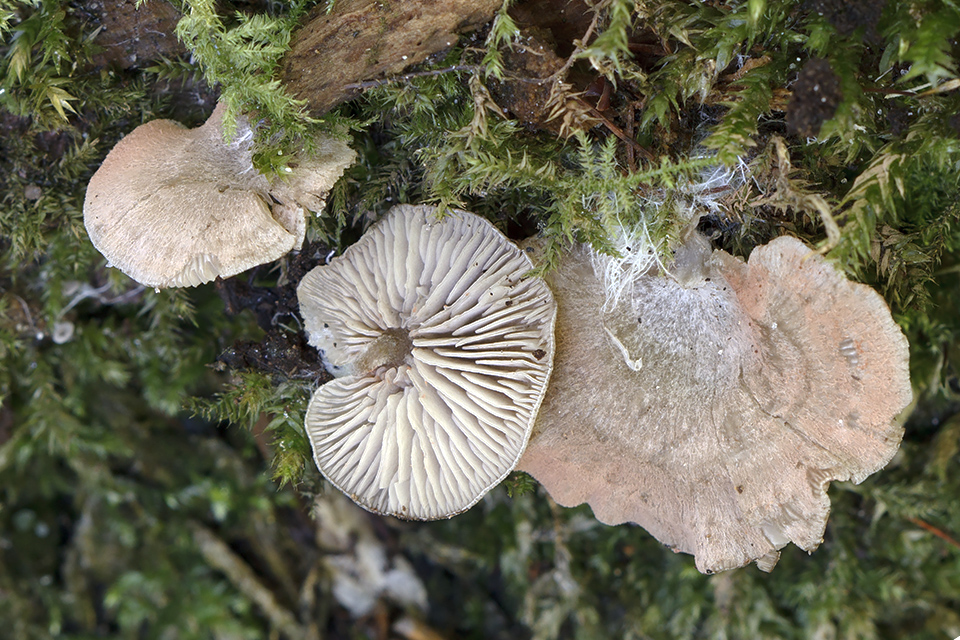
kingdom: Fungi
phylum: Basidiomycota
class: Agaricomycetes
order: Agaricales
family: Entolomataceae
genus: Entoloma
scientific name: Entoloma byssisedum
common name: vifte-rødblad
